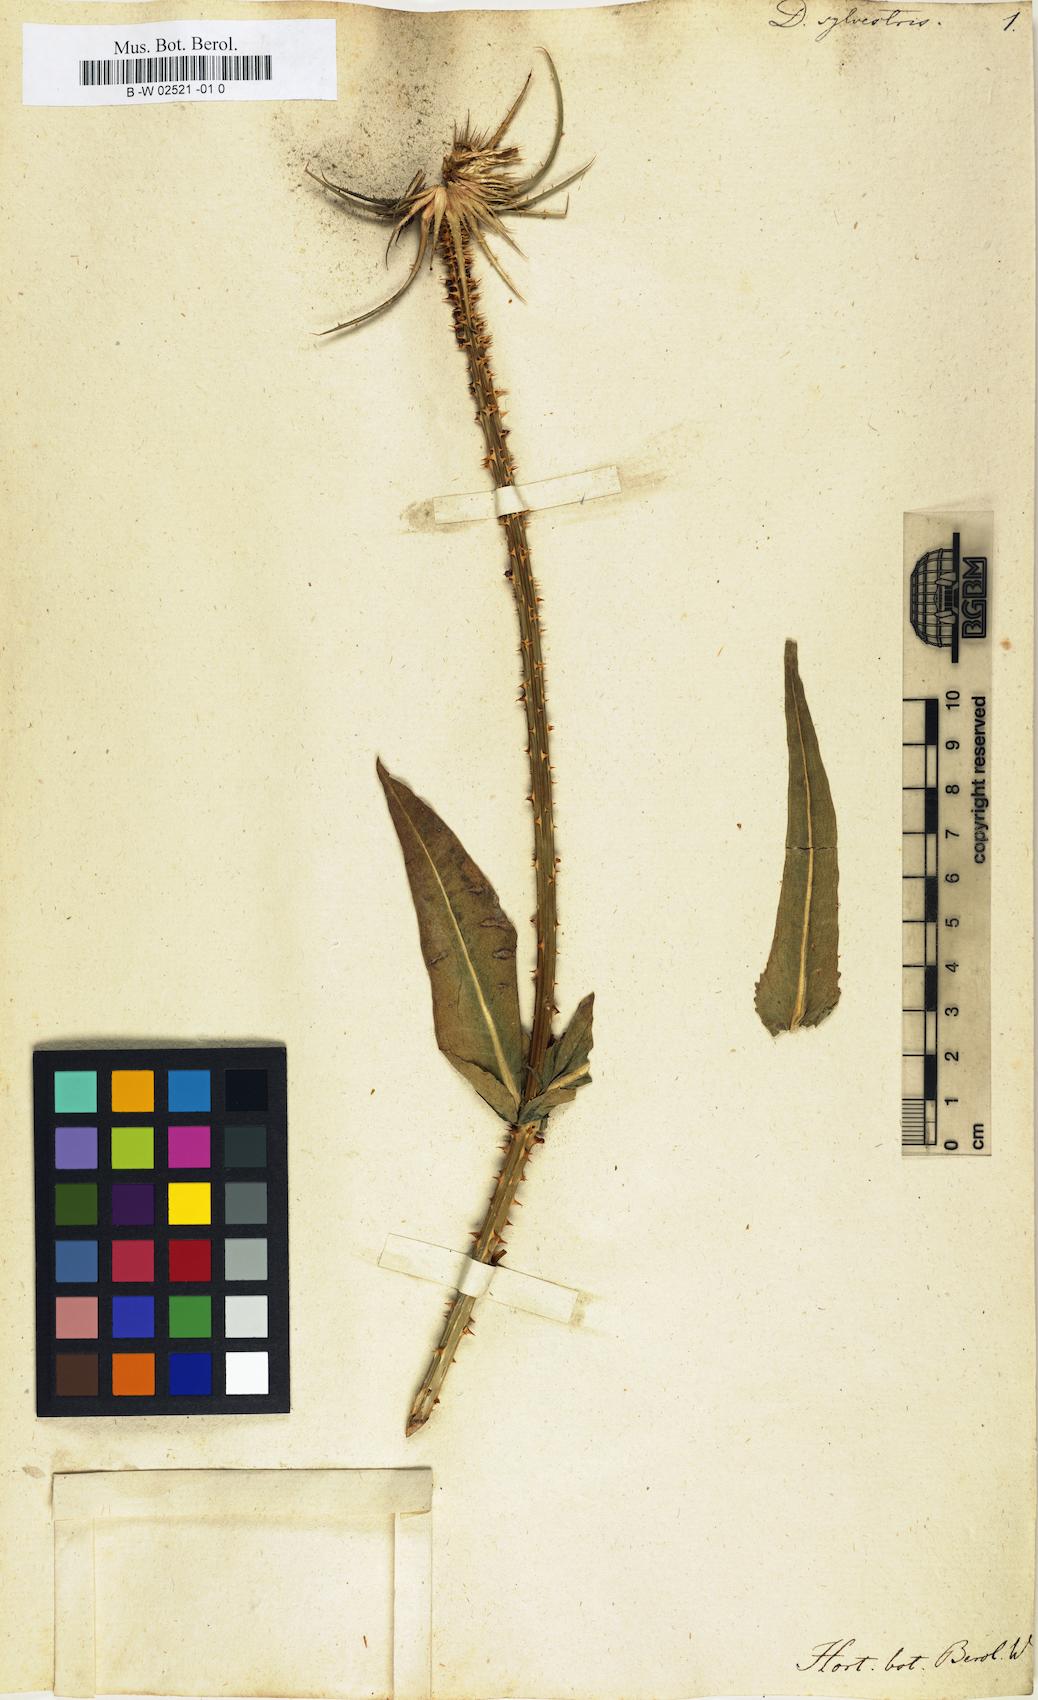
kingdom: Plantae
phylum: Tracheophyta
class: Magnoliopsida
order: Dipsacales
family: Caprifoliaceae
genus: Dipsacus
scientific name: Dipsacus sylvestris
